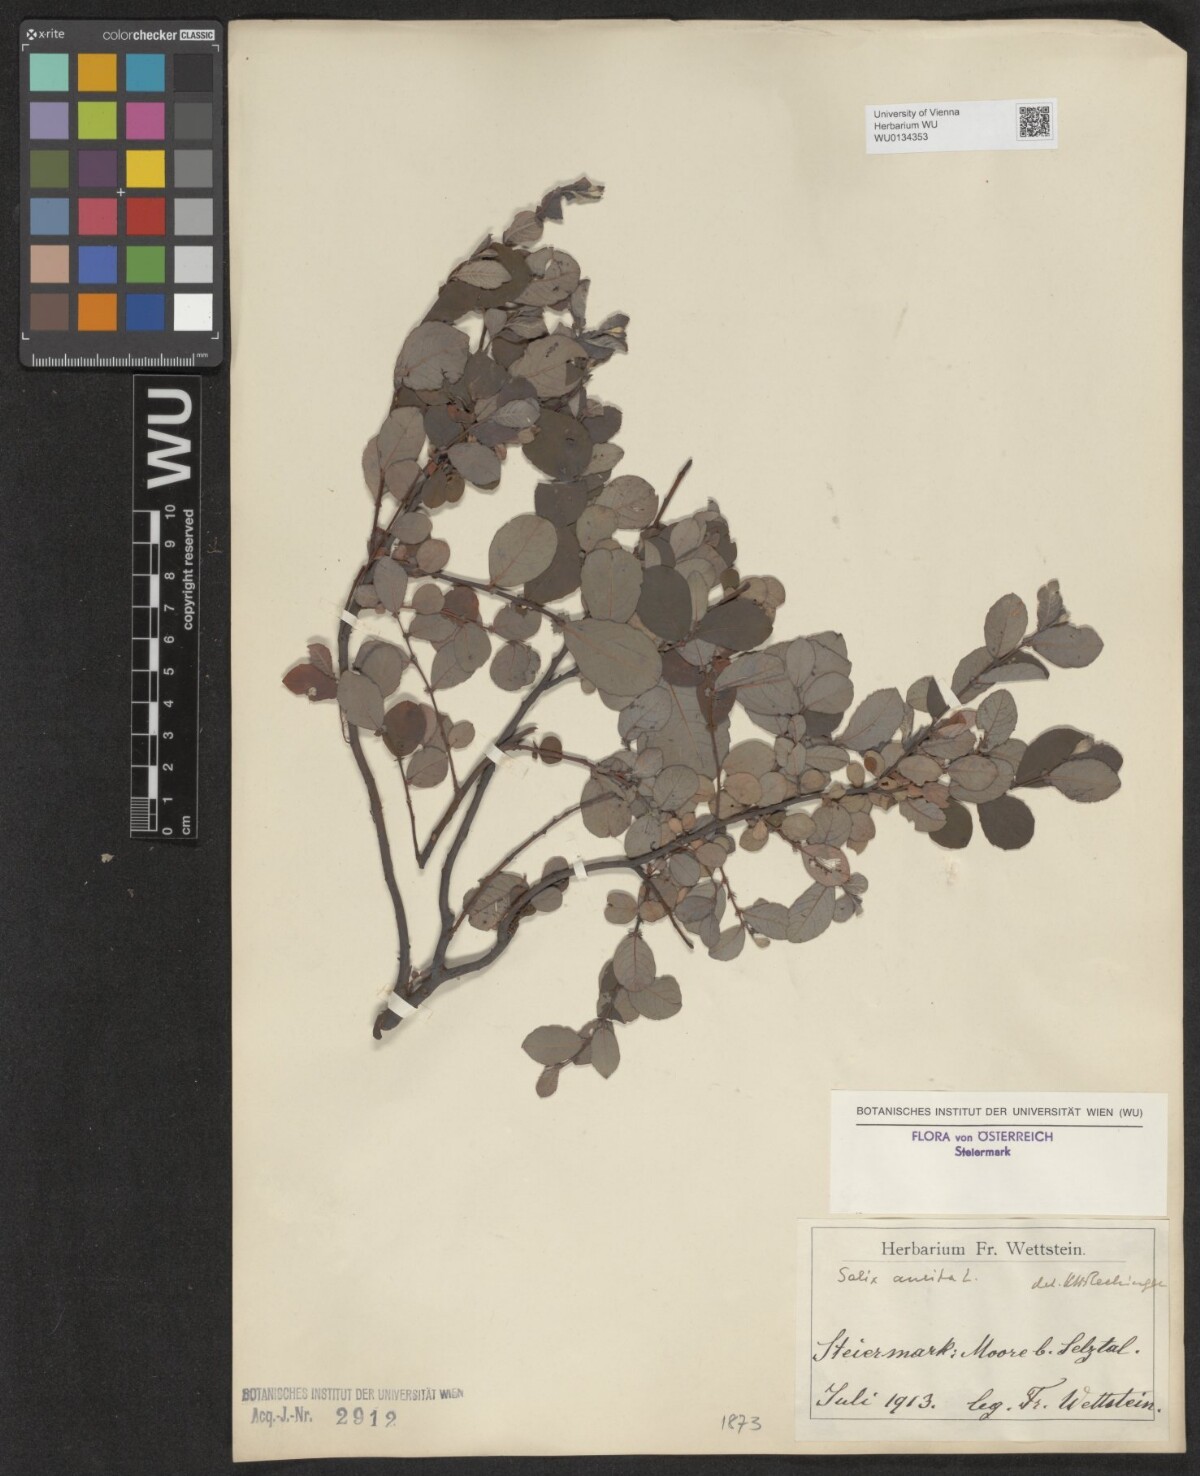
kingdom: Plantae
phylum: Tracheophyta
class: Magnoliopsida
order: Malpighiales
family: Salicaceae
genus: Salix
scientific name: Salix aurita
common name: Eared willow
